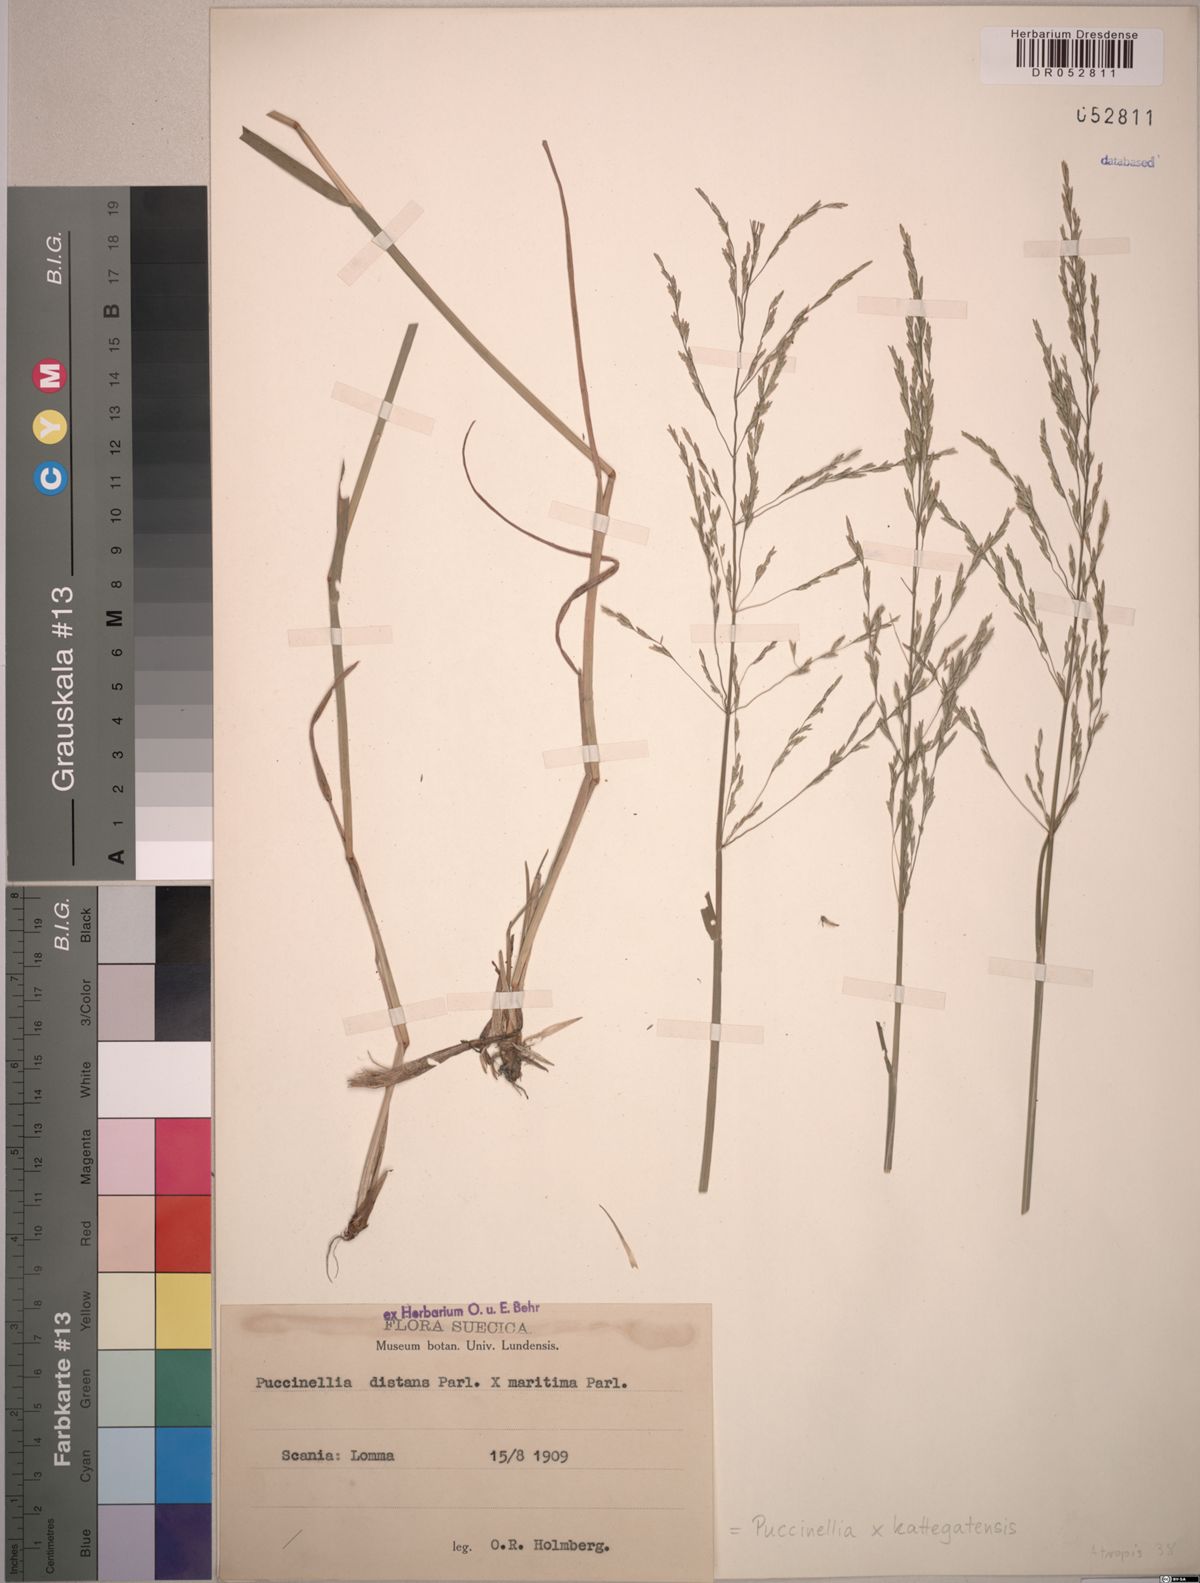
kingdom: Plantae
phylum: Tracheophyta
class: Liliopsida
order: Poales
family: Poaceae
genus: Puccinellia
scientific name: Puccinellia kattegatensis
